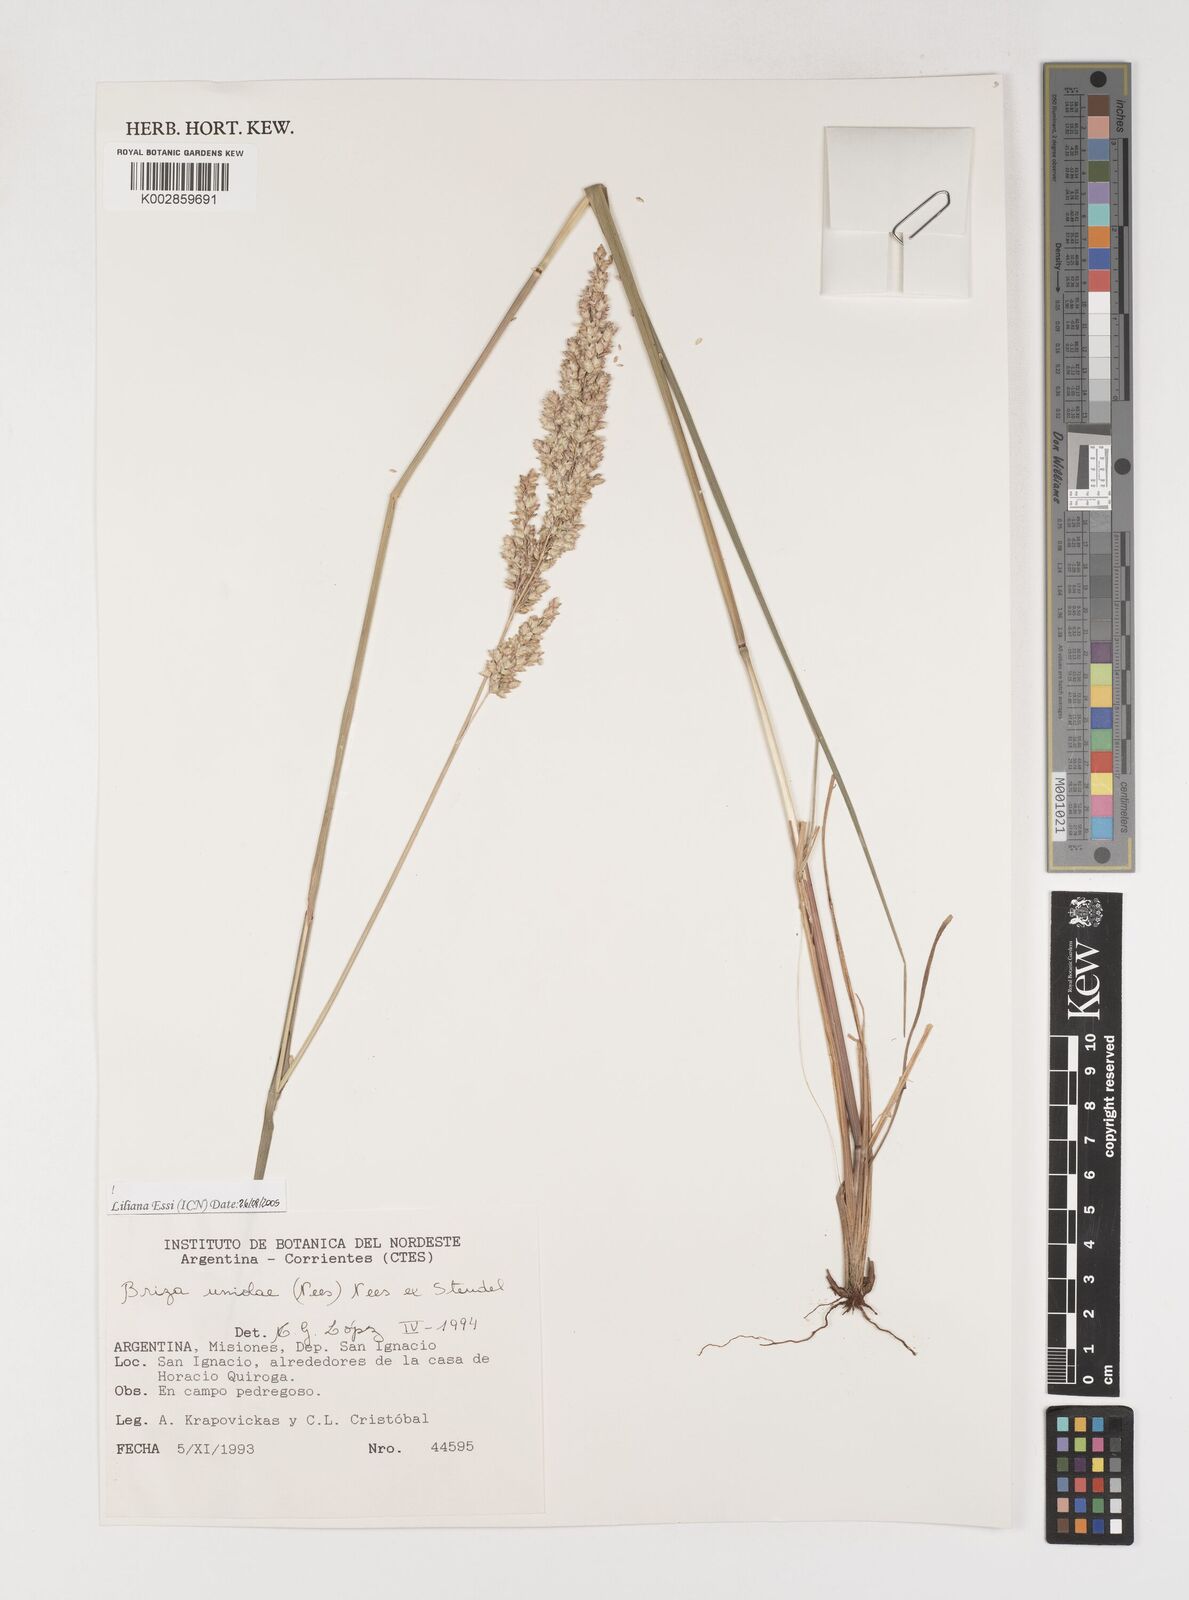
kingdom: Plantae
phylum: Tracheophyta
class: Liliopsida
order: Poales
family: Poaceae
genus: Poidium
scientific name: Poidium uniolae
